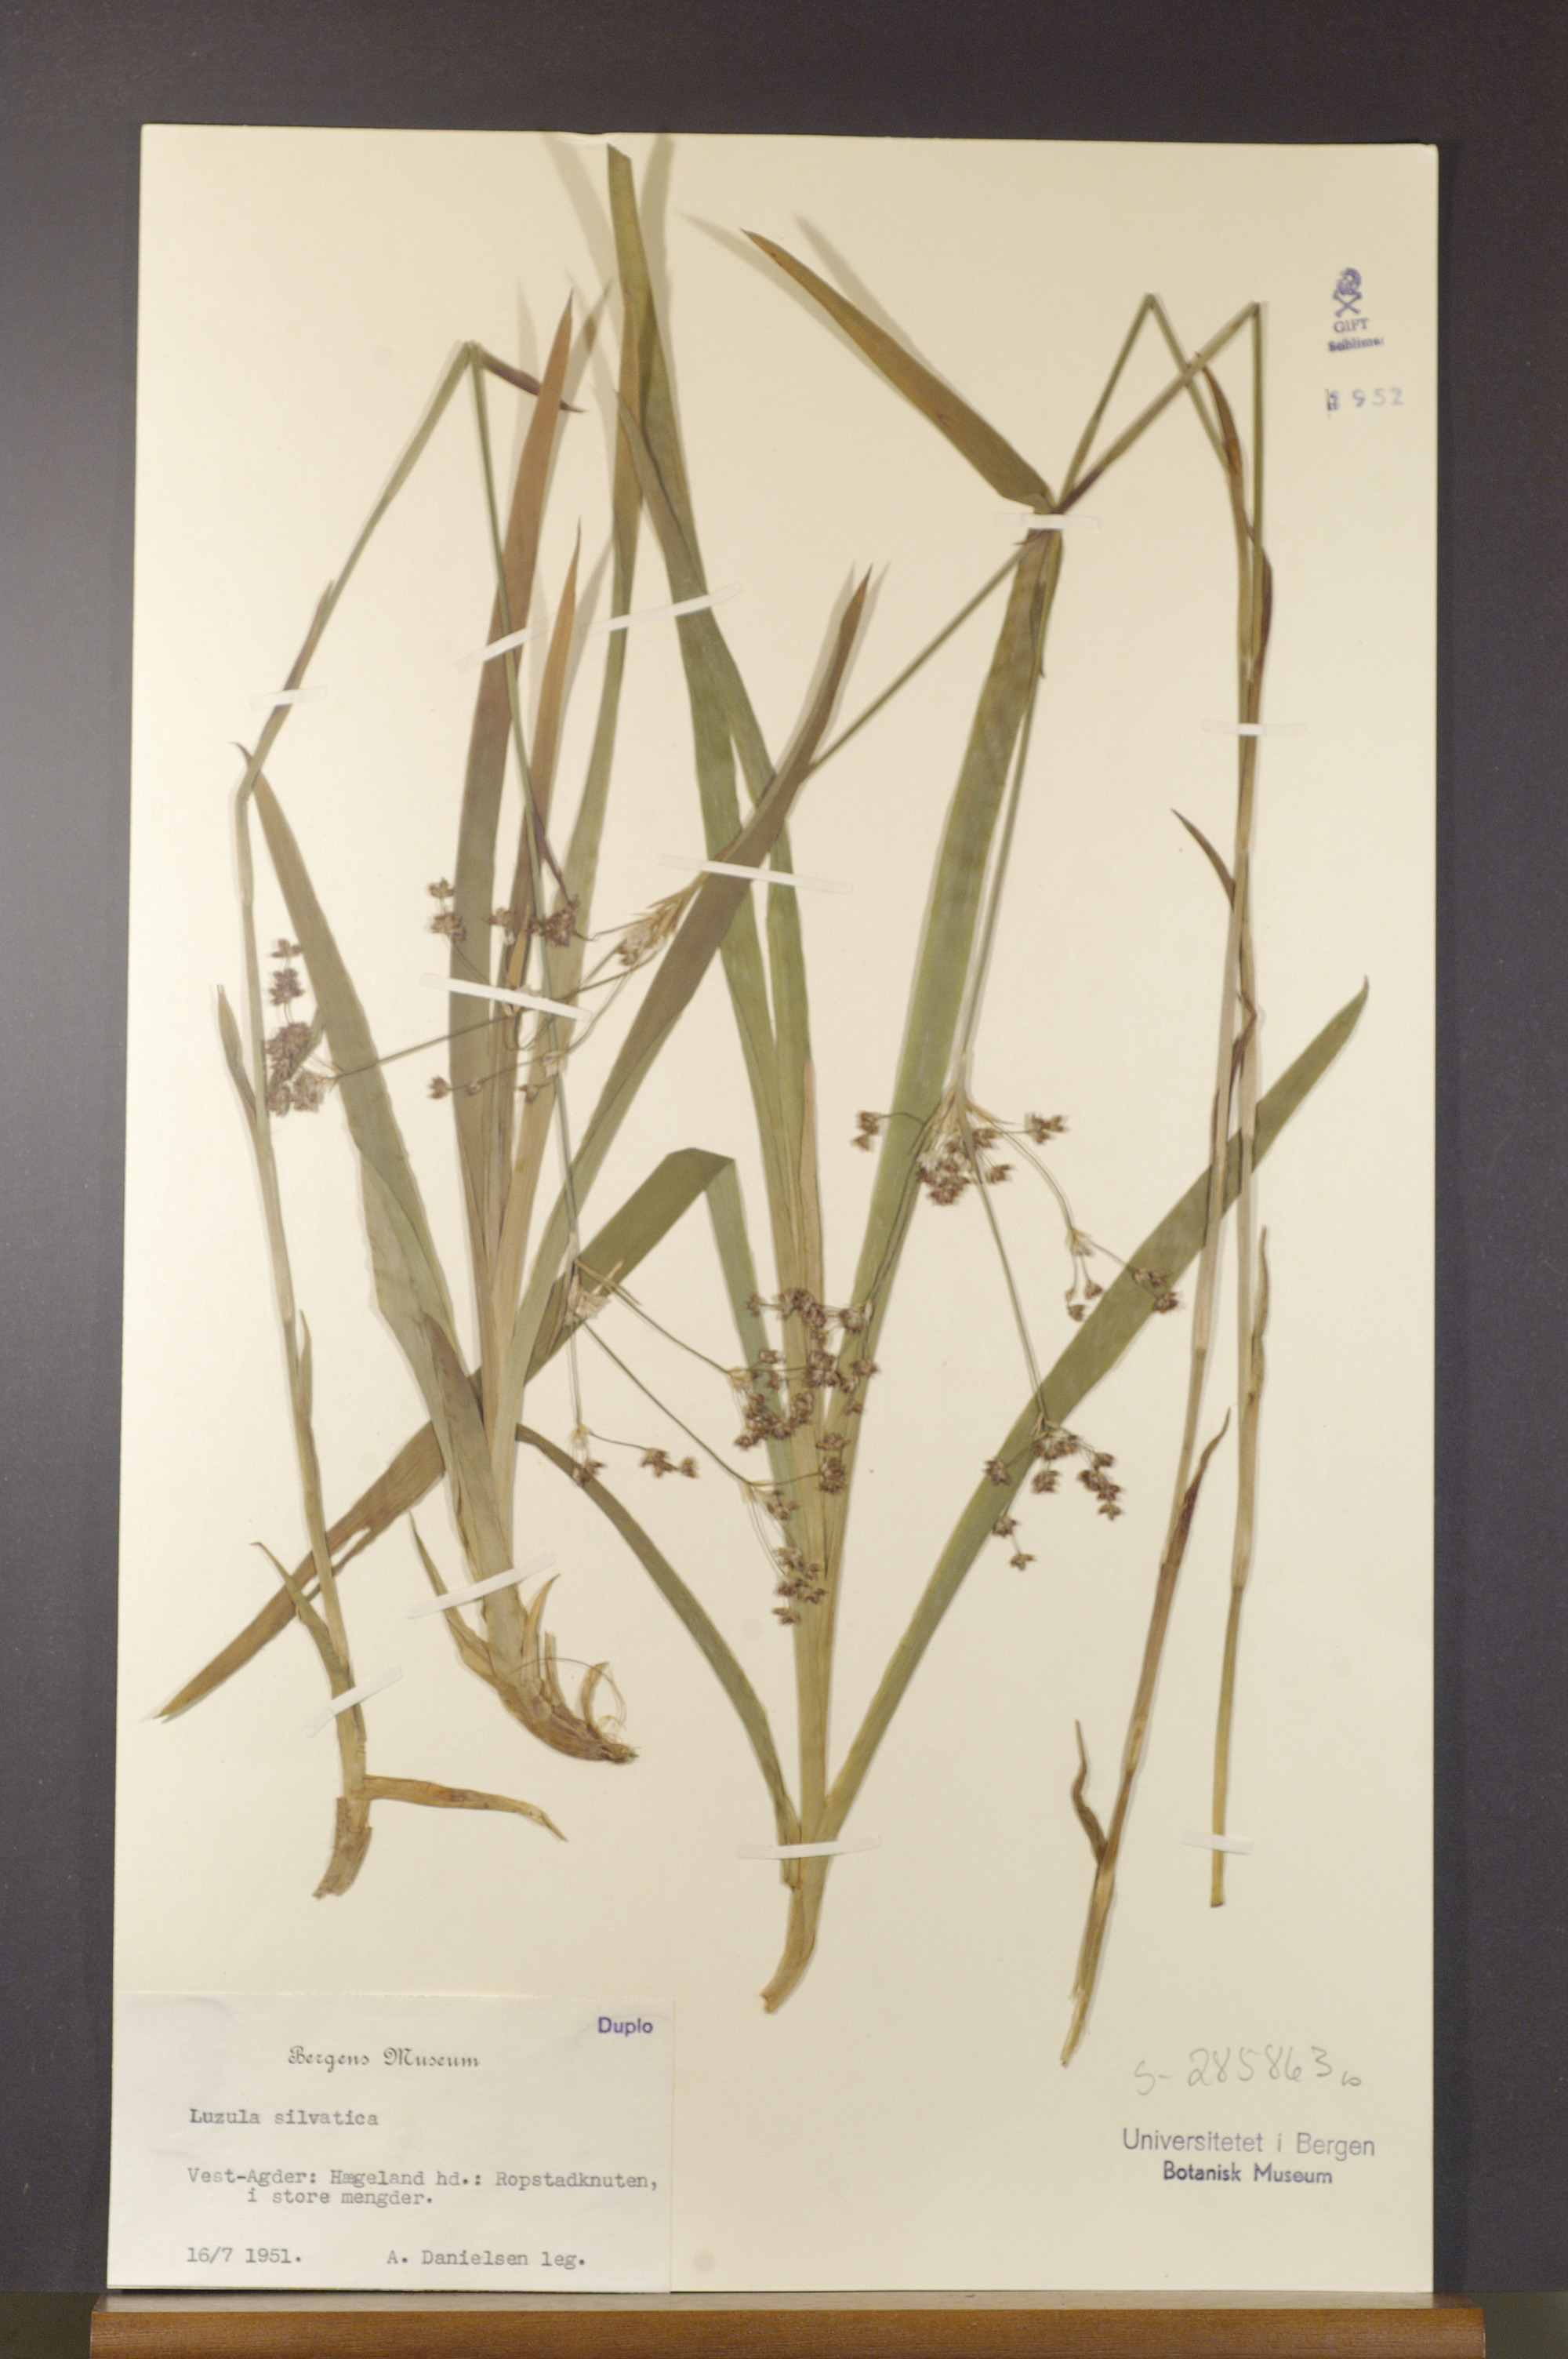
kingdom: Plantae
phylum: Tracheophyta
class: Liliopsida
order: Poales
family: Juncaceae
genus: Luzula
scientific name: Luzula sylvatica
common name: Great wood-rush
